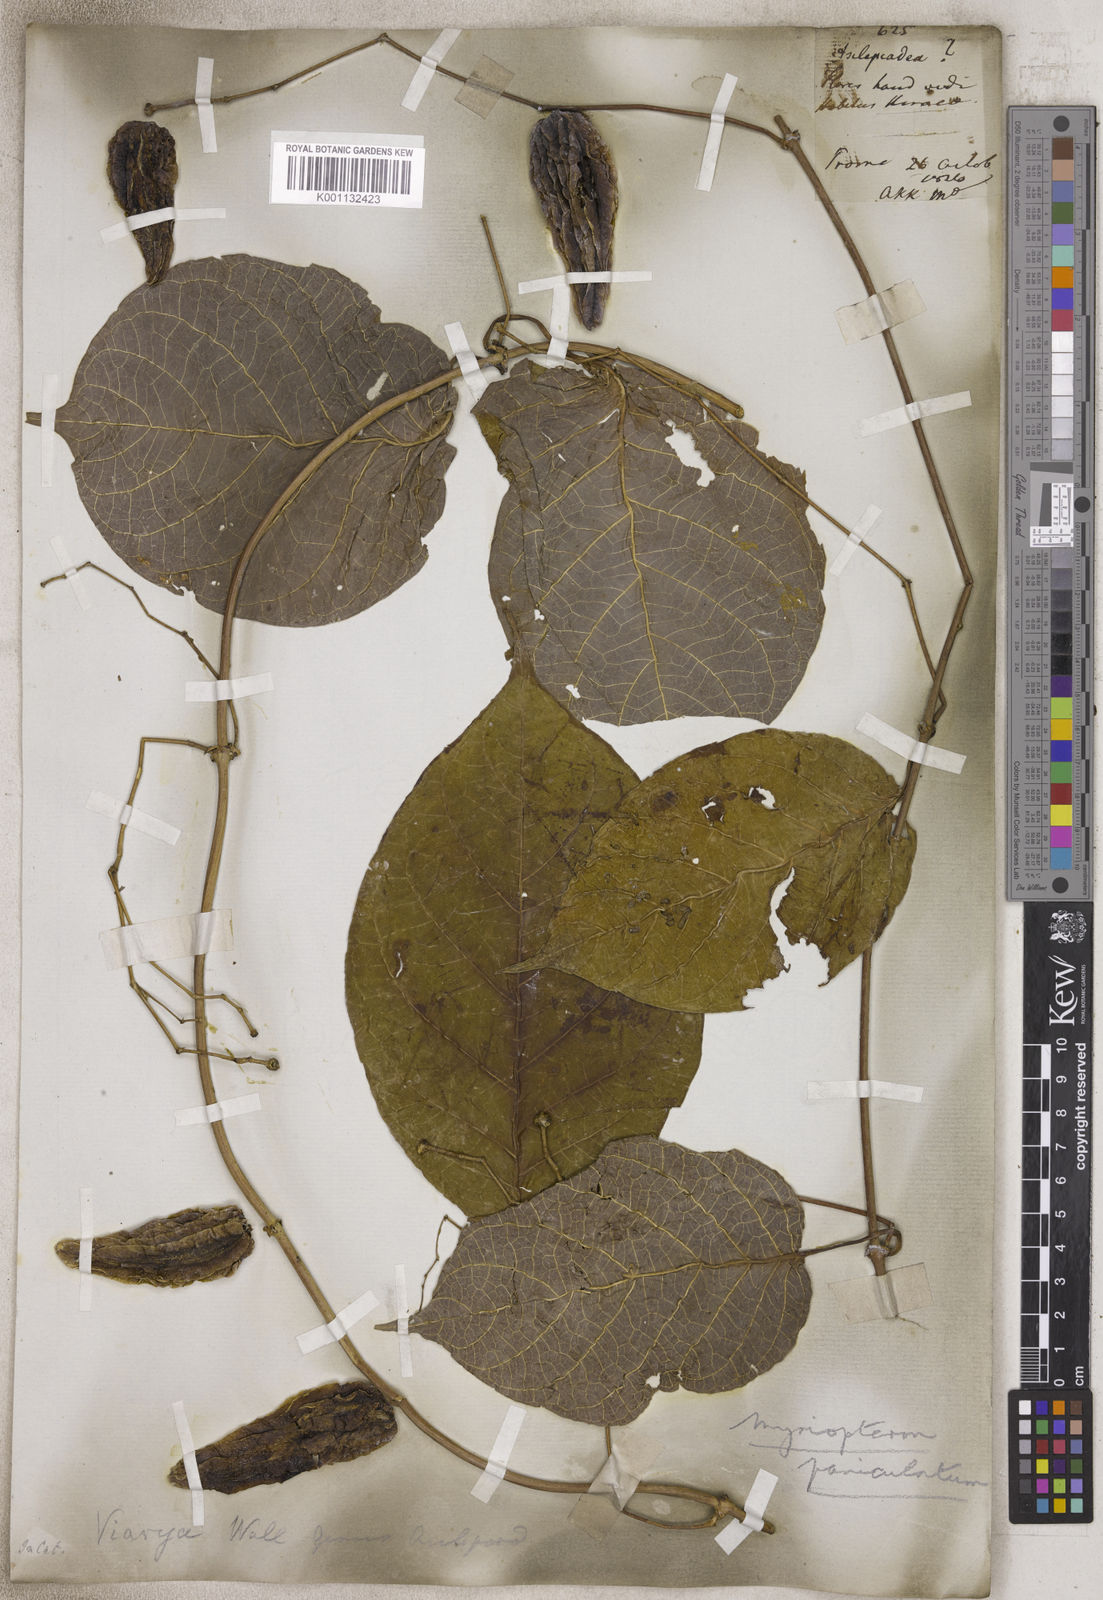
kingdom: Plantae
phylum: Tracheophyta
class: Magnoliopsida
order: Gentianales
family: Apocynaceae
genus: Myriopteron
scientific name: Myriopteron
